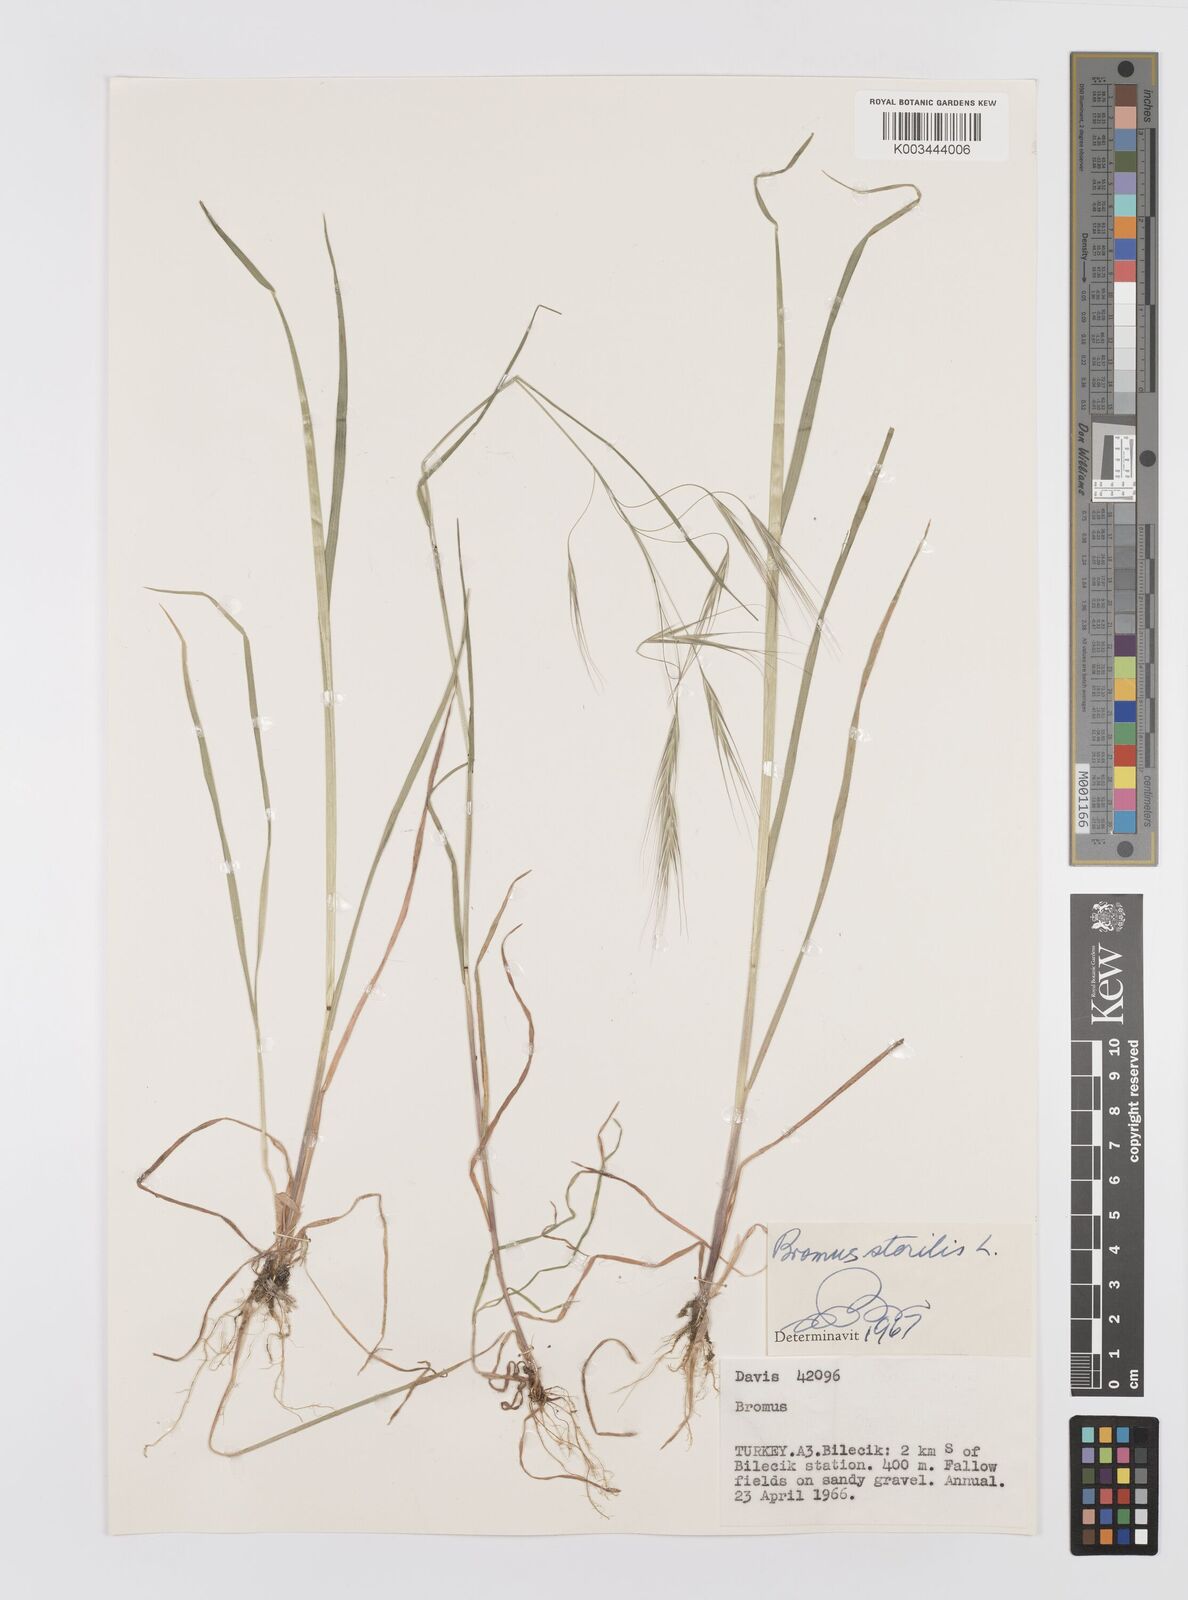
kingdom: Plantae
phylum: Tracheophyta
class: Liliopsida
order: Poales
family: Poaceae
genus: Bromus
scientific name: Bromus sterilis
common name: Poverty brome
